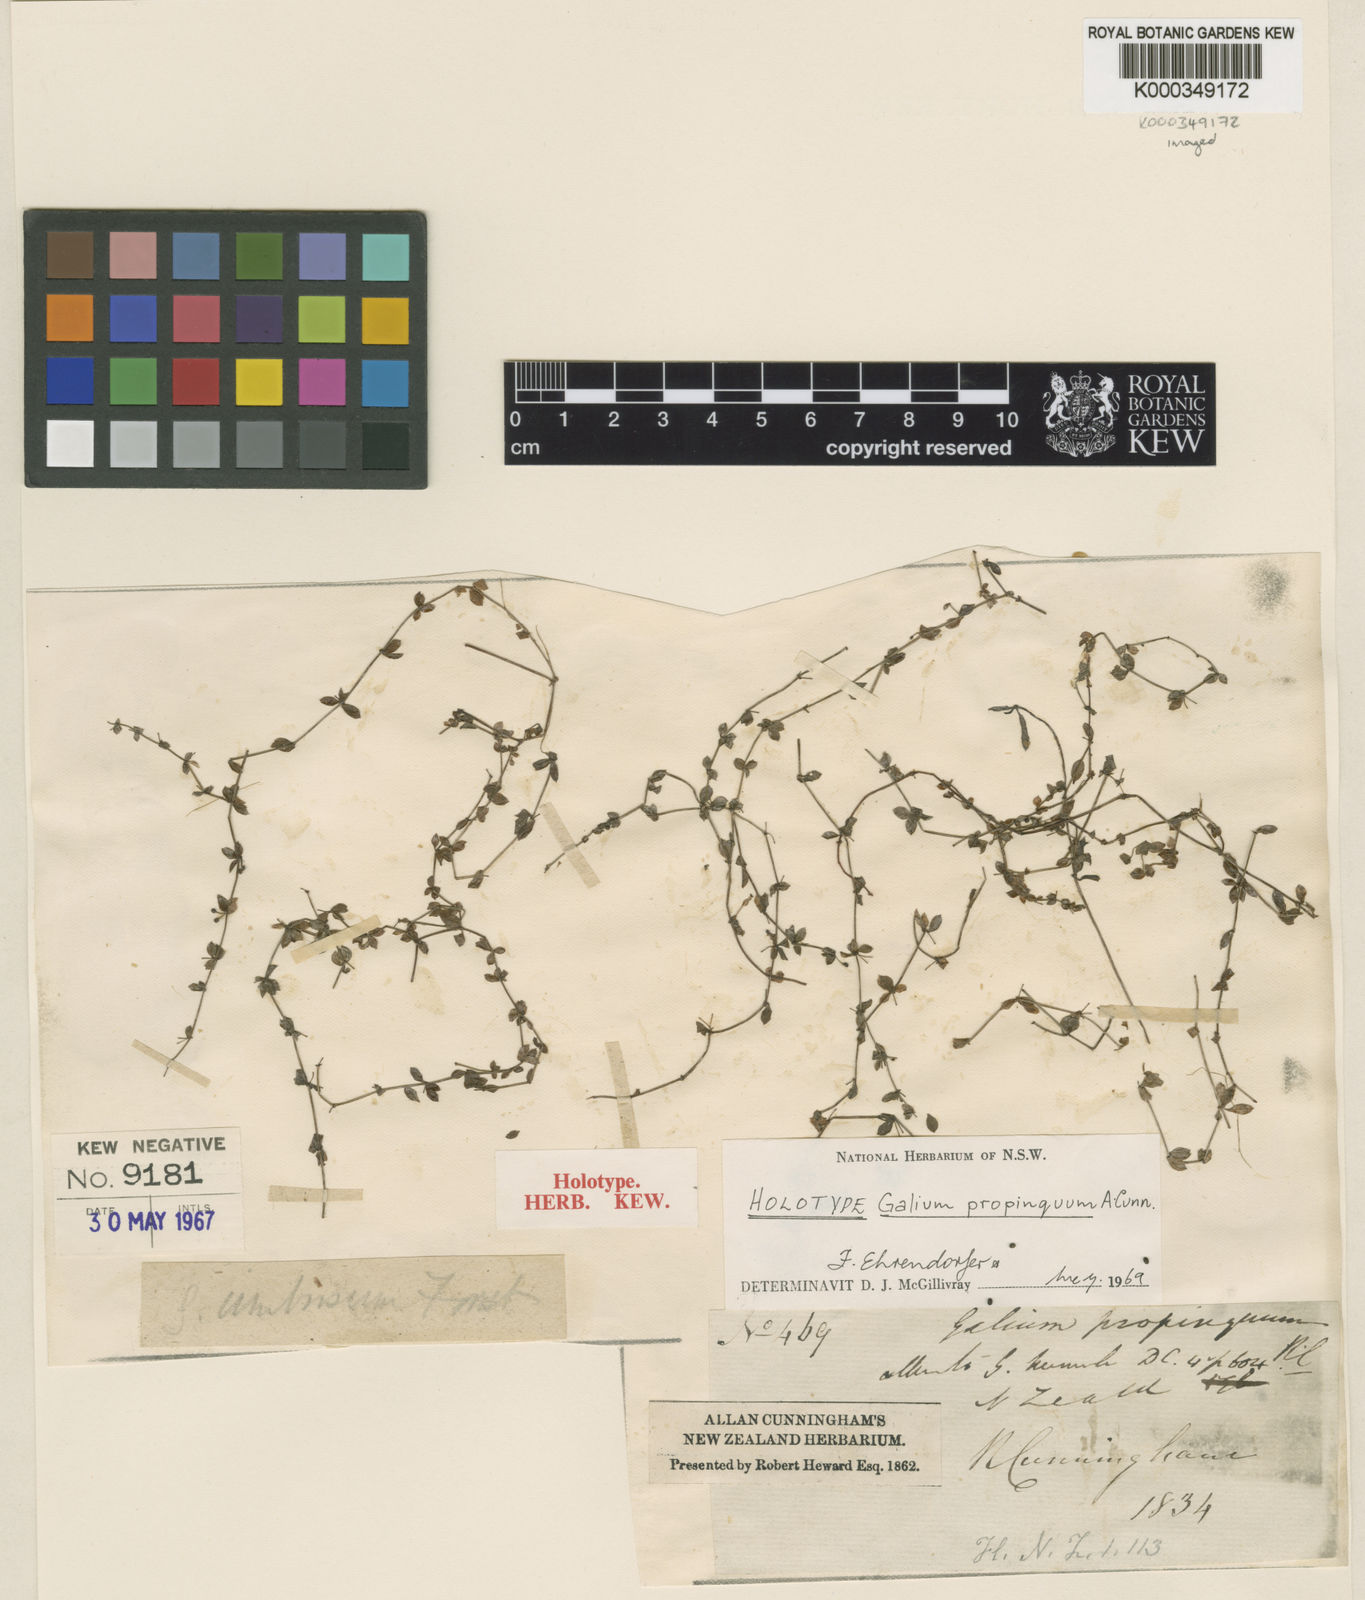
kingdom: Plantae
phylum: Tracheophyta
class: Magnoliopsida
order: Gentianales
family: Rubiaceae
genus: Galium
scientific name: Galium propinquum
